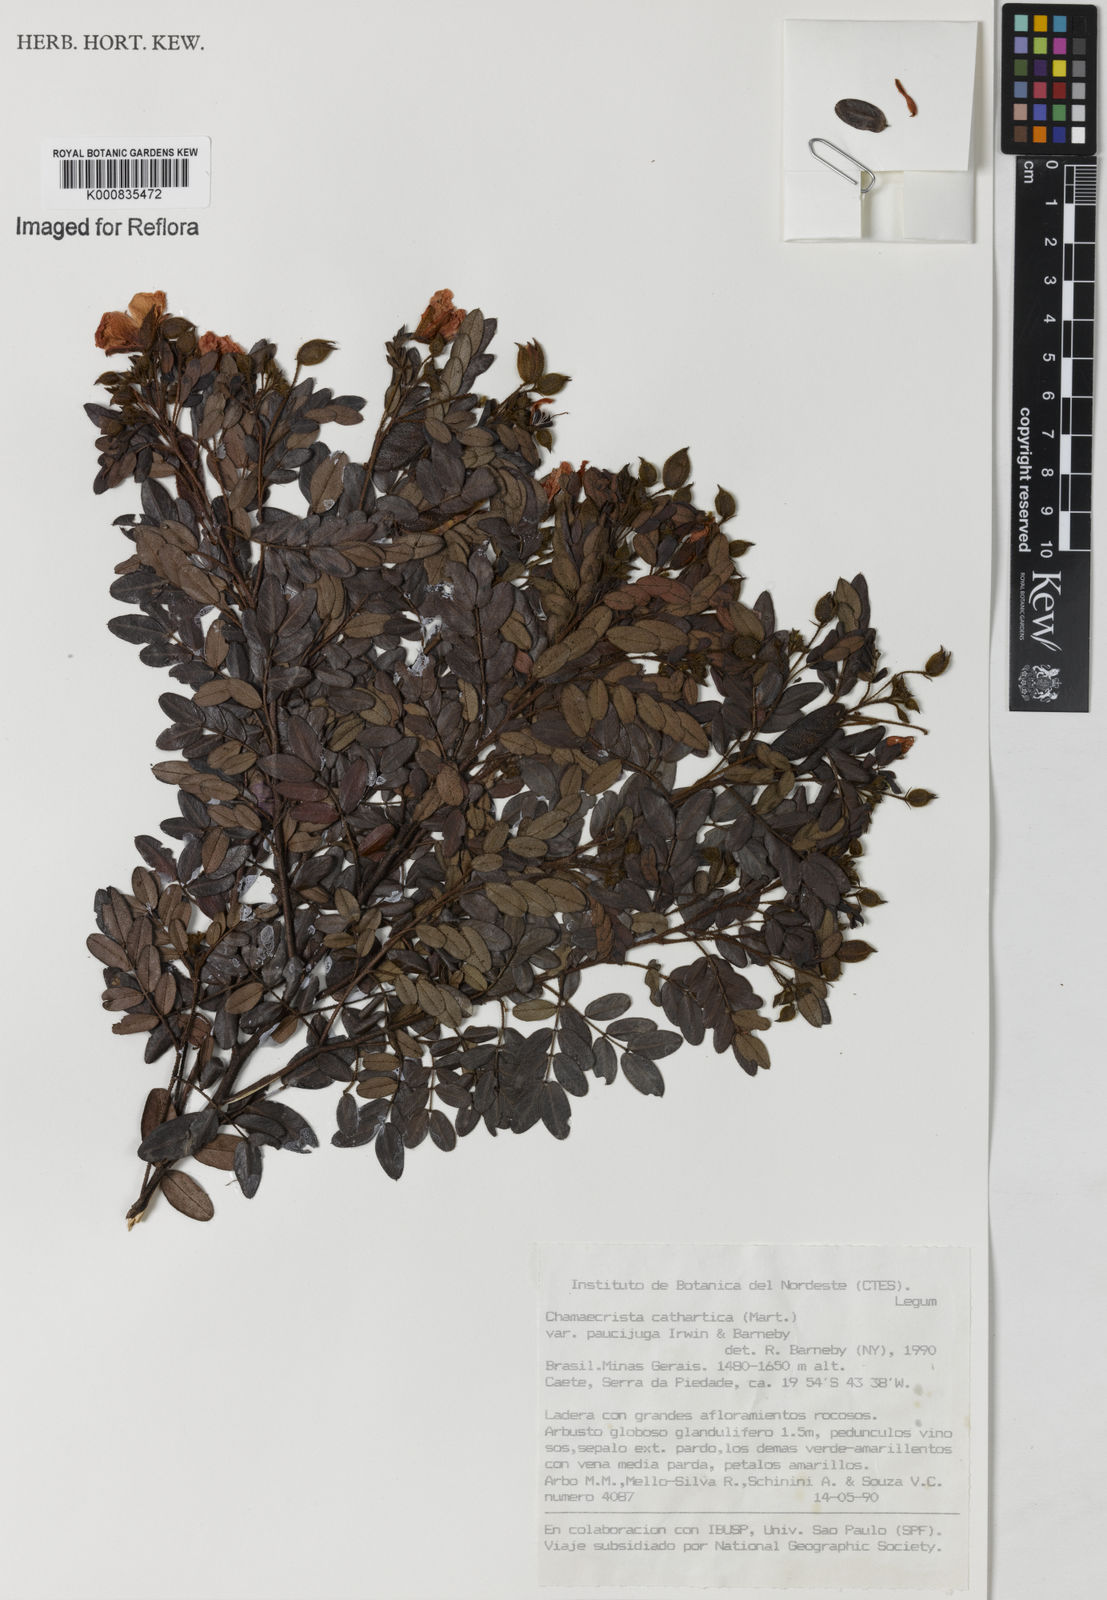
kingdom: Plantae
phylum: Tracheophyta
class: Magnoliopsida
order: Fabales
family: Fabaceae
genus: Chamaecrista
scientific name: Chamaecrista cathartica
